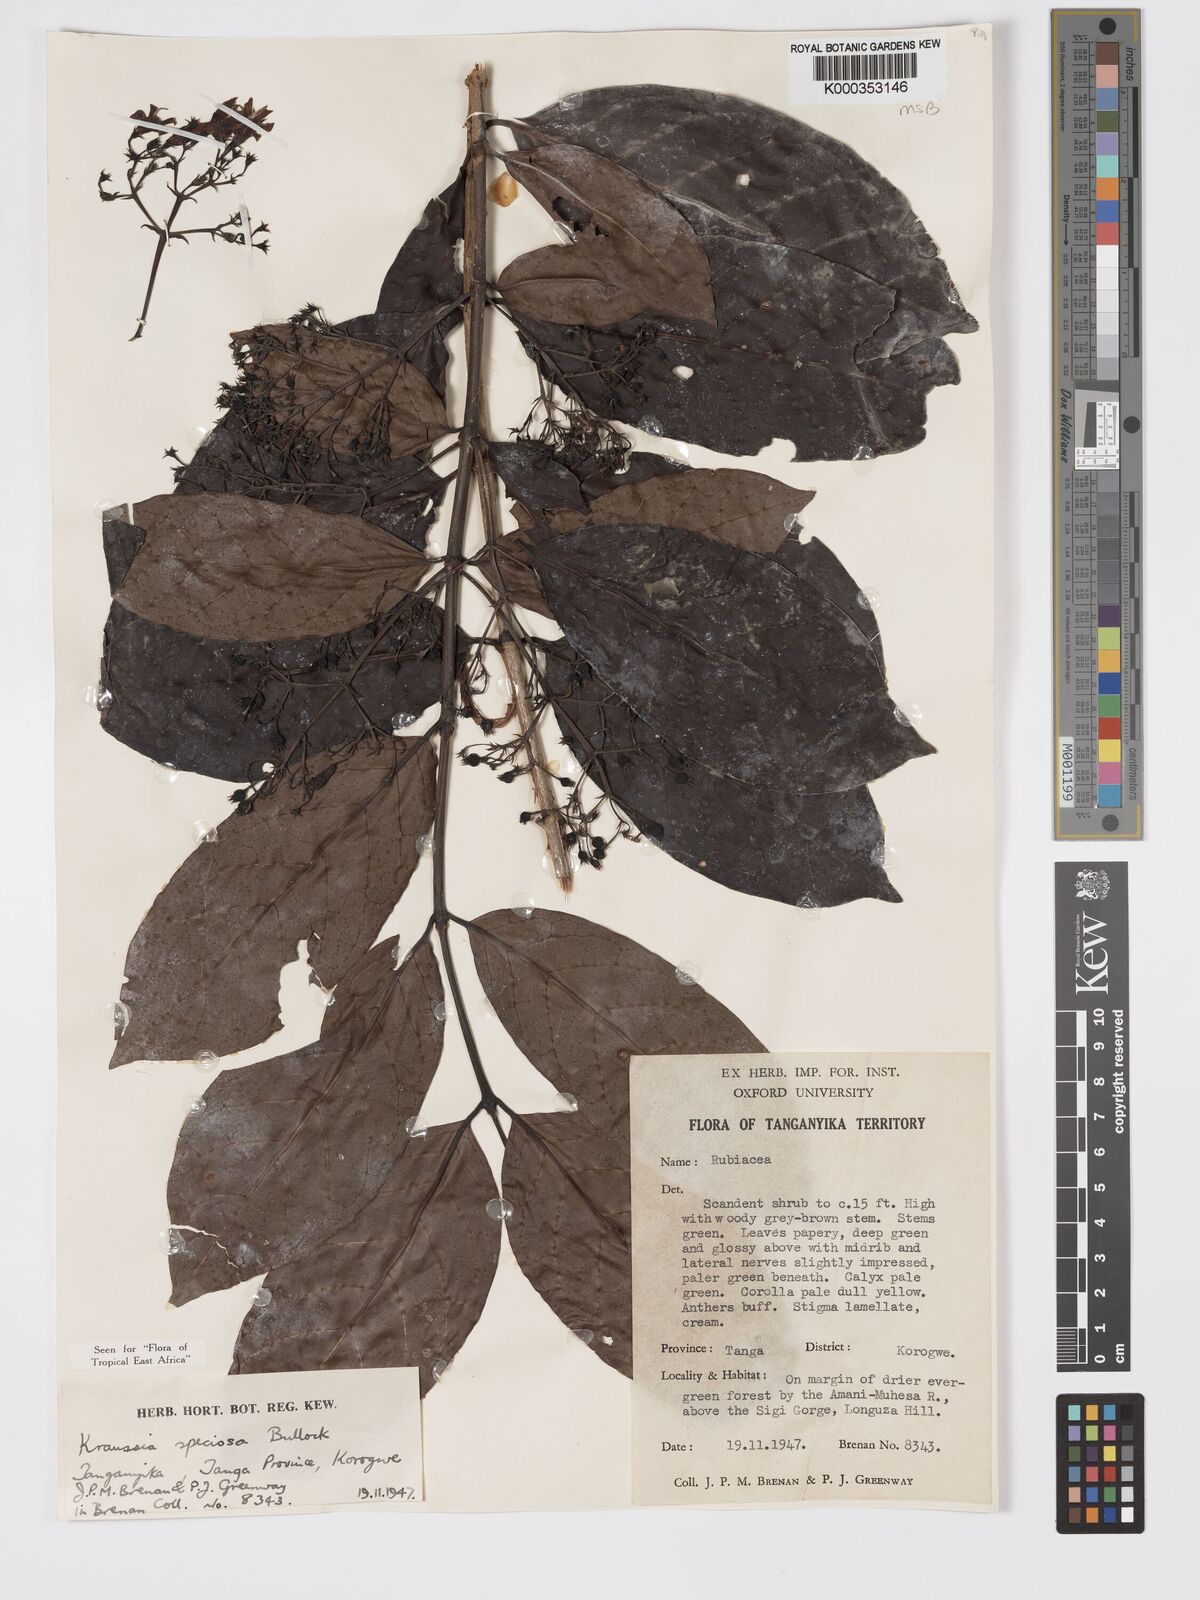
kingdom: Plantae
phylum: Tracheophyta
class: Magnoliopsida
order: Gentianales
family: Rubiaceae
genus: Kraussia
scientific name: Kraussia speciosa
